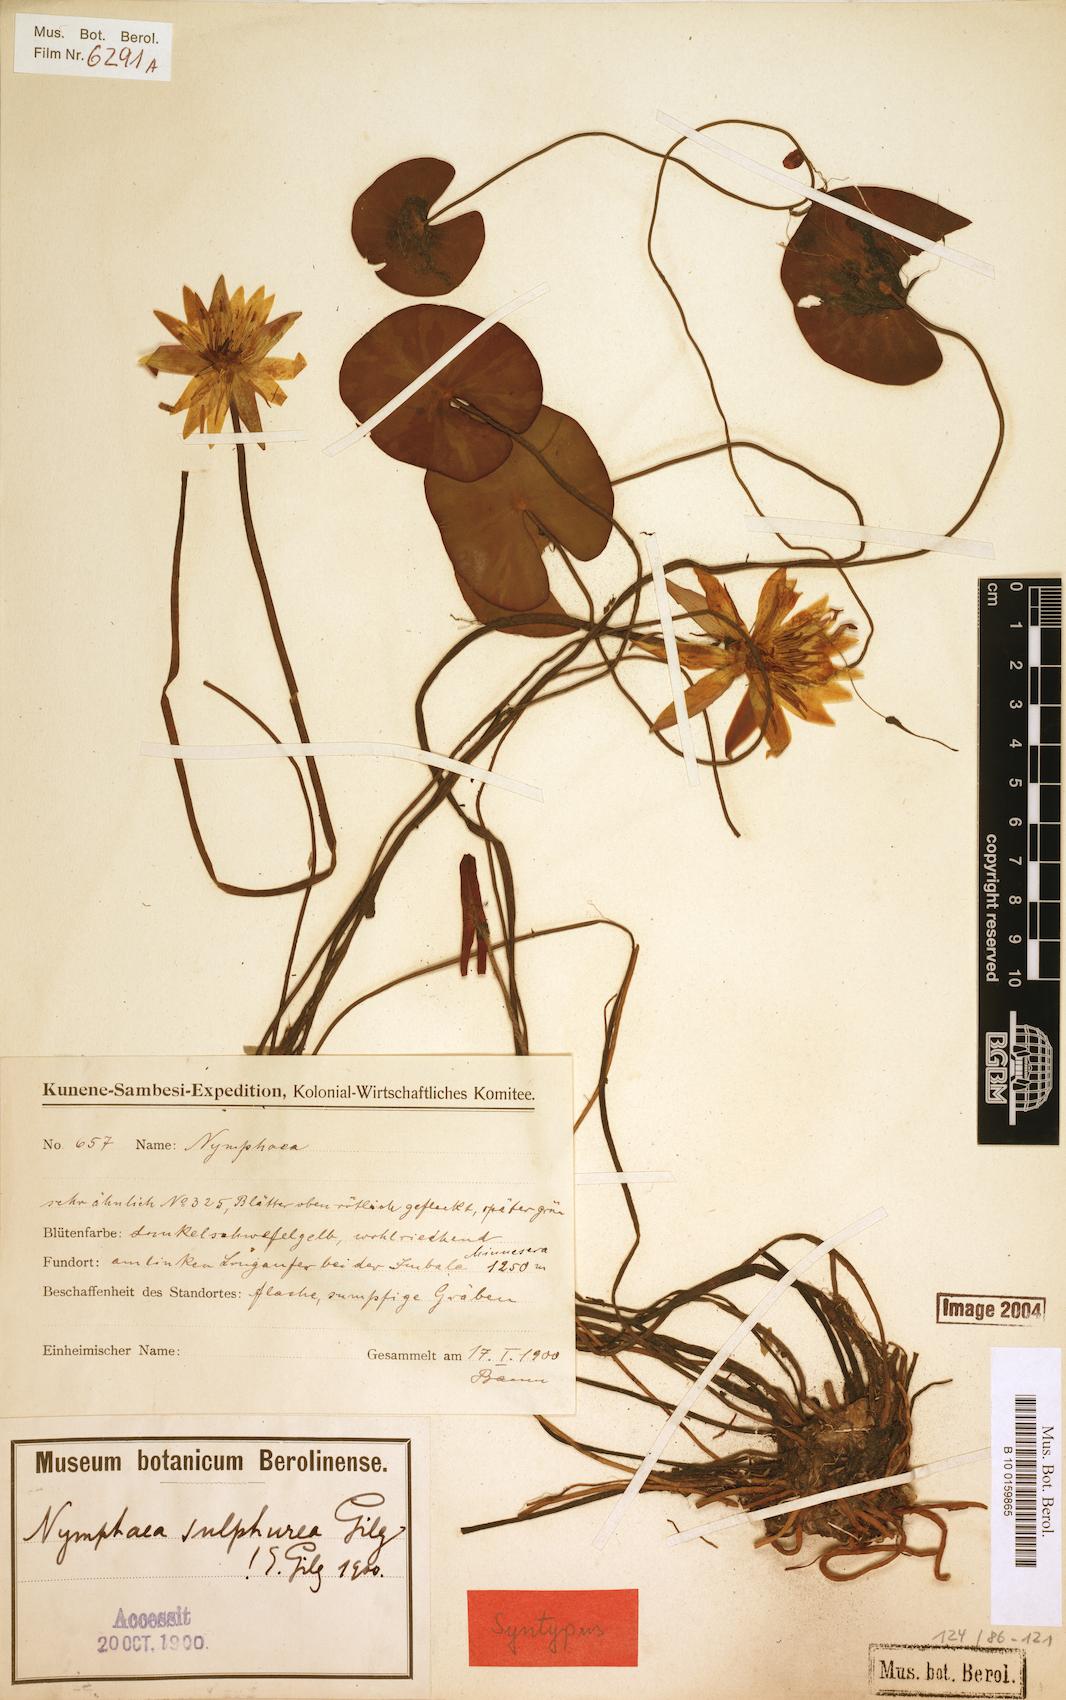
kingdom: Plantae
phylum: Tracheophyta
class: Magnoliopsida
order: Nymphaeales
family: Nymphaeaceae
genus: Nymphaea
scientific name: Nymphaea sulphurea
